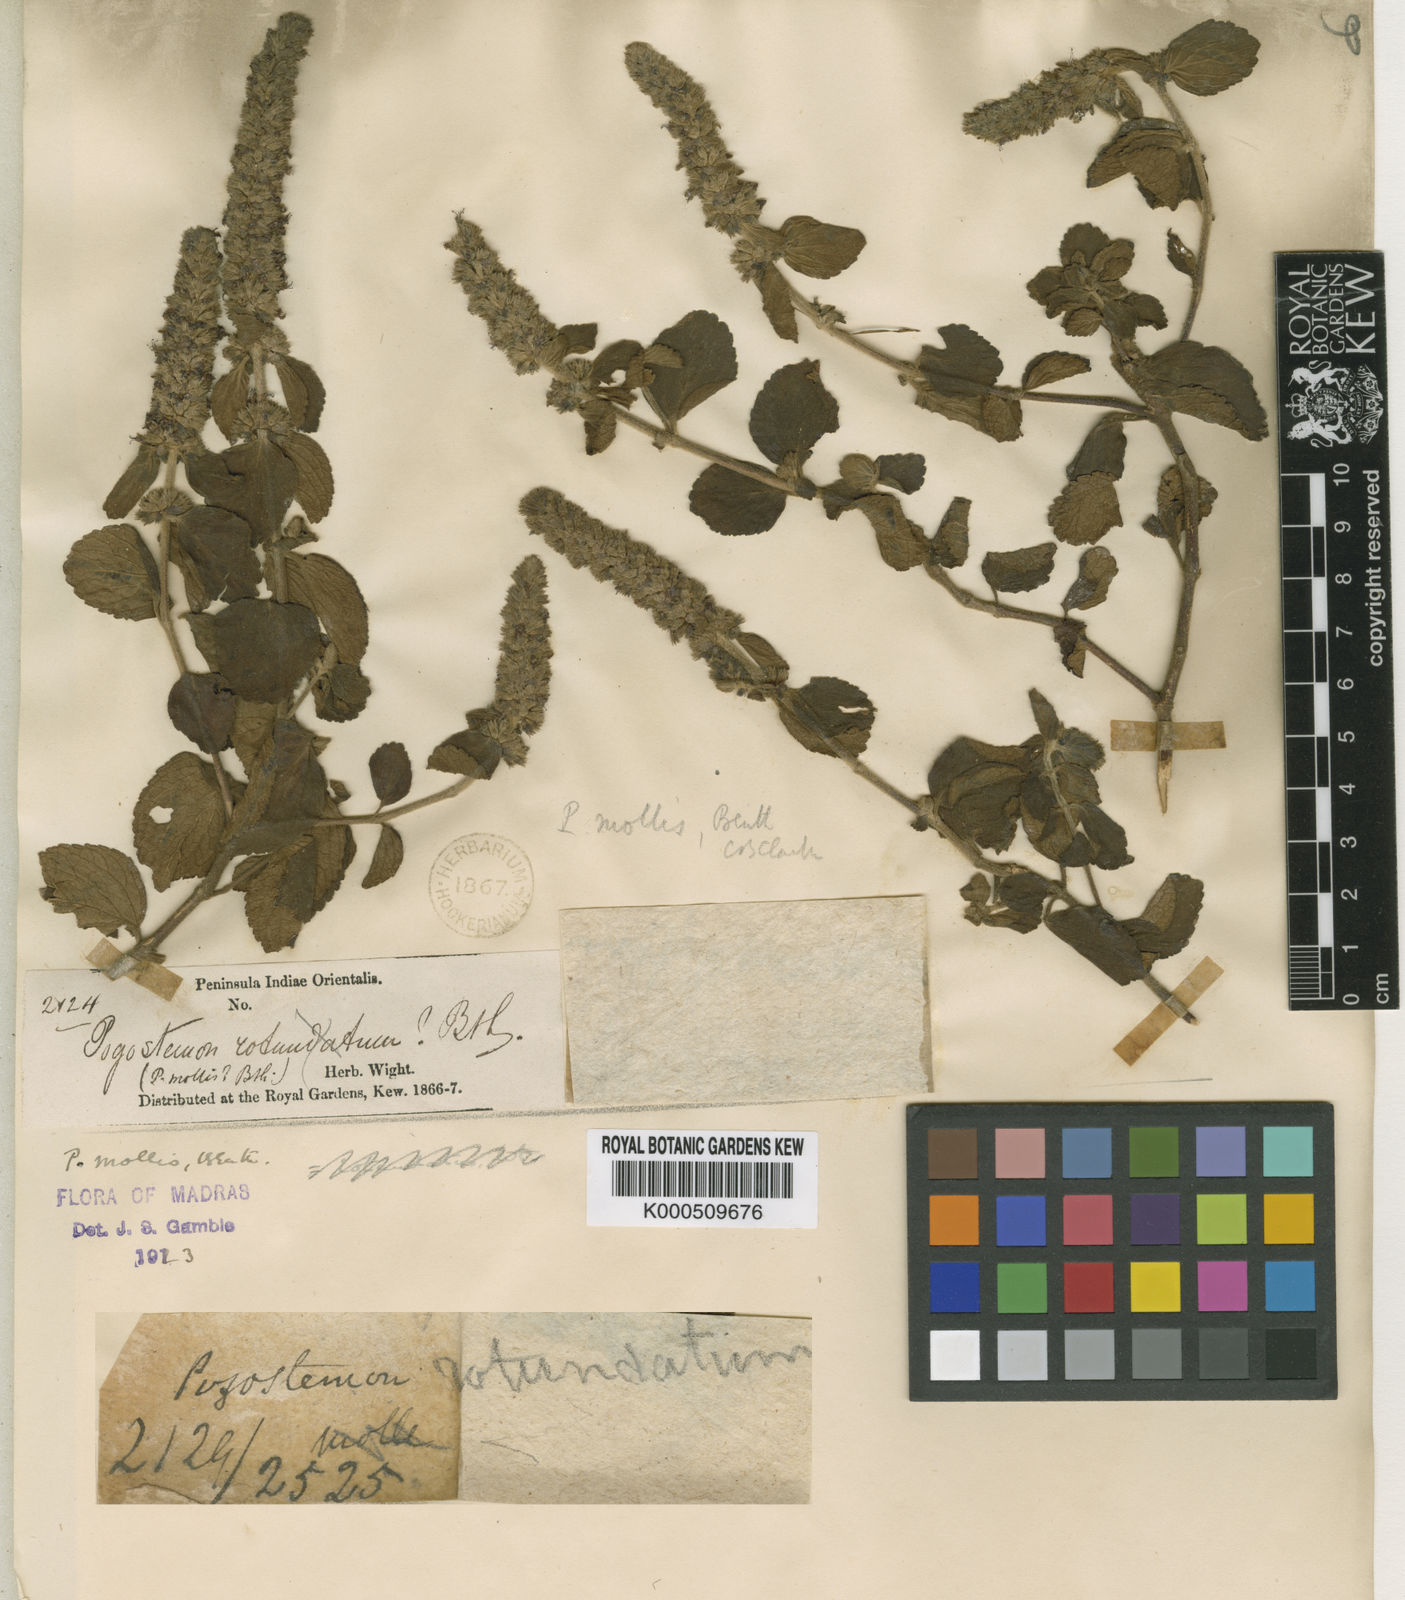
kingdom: Plantae
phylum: Tracheophyta
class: Magnoliopsida
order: Lamiales
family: Lamiaceae
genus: Pogostemon
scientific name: Pogostemon mollis
